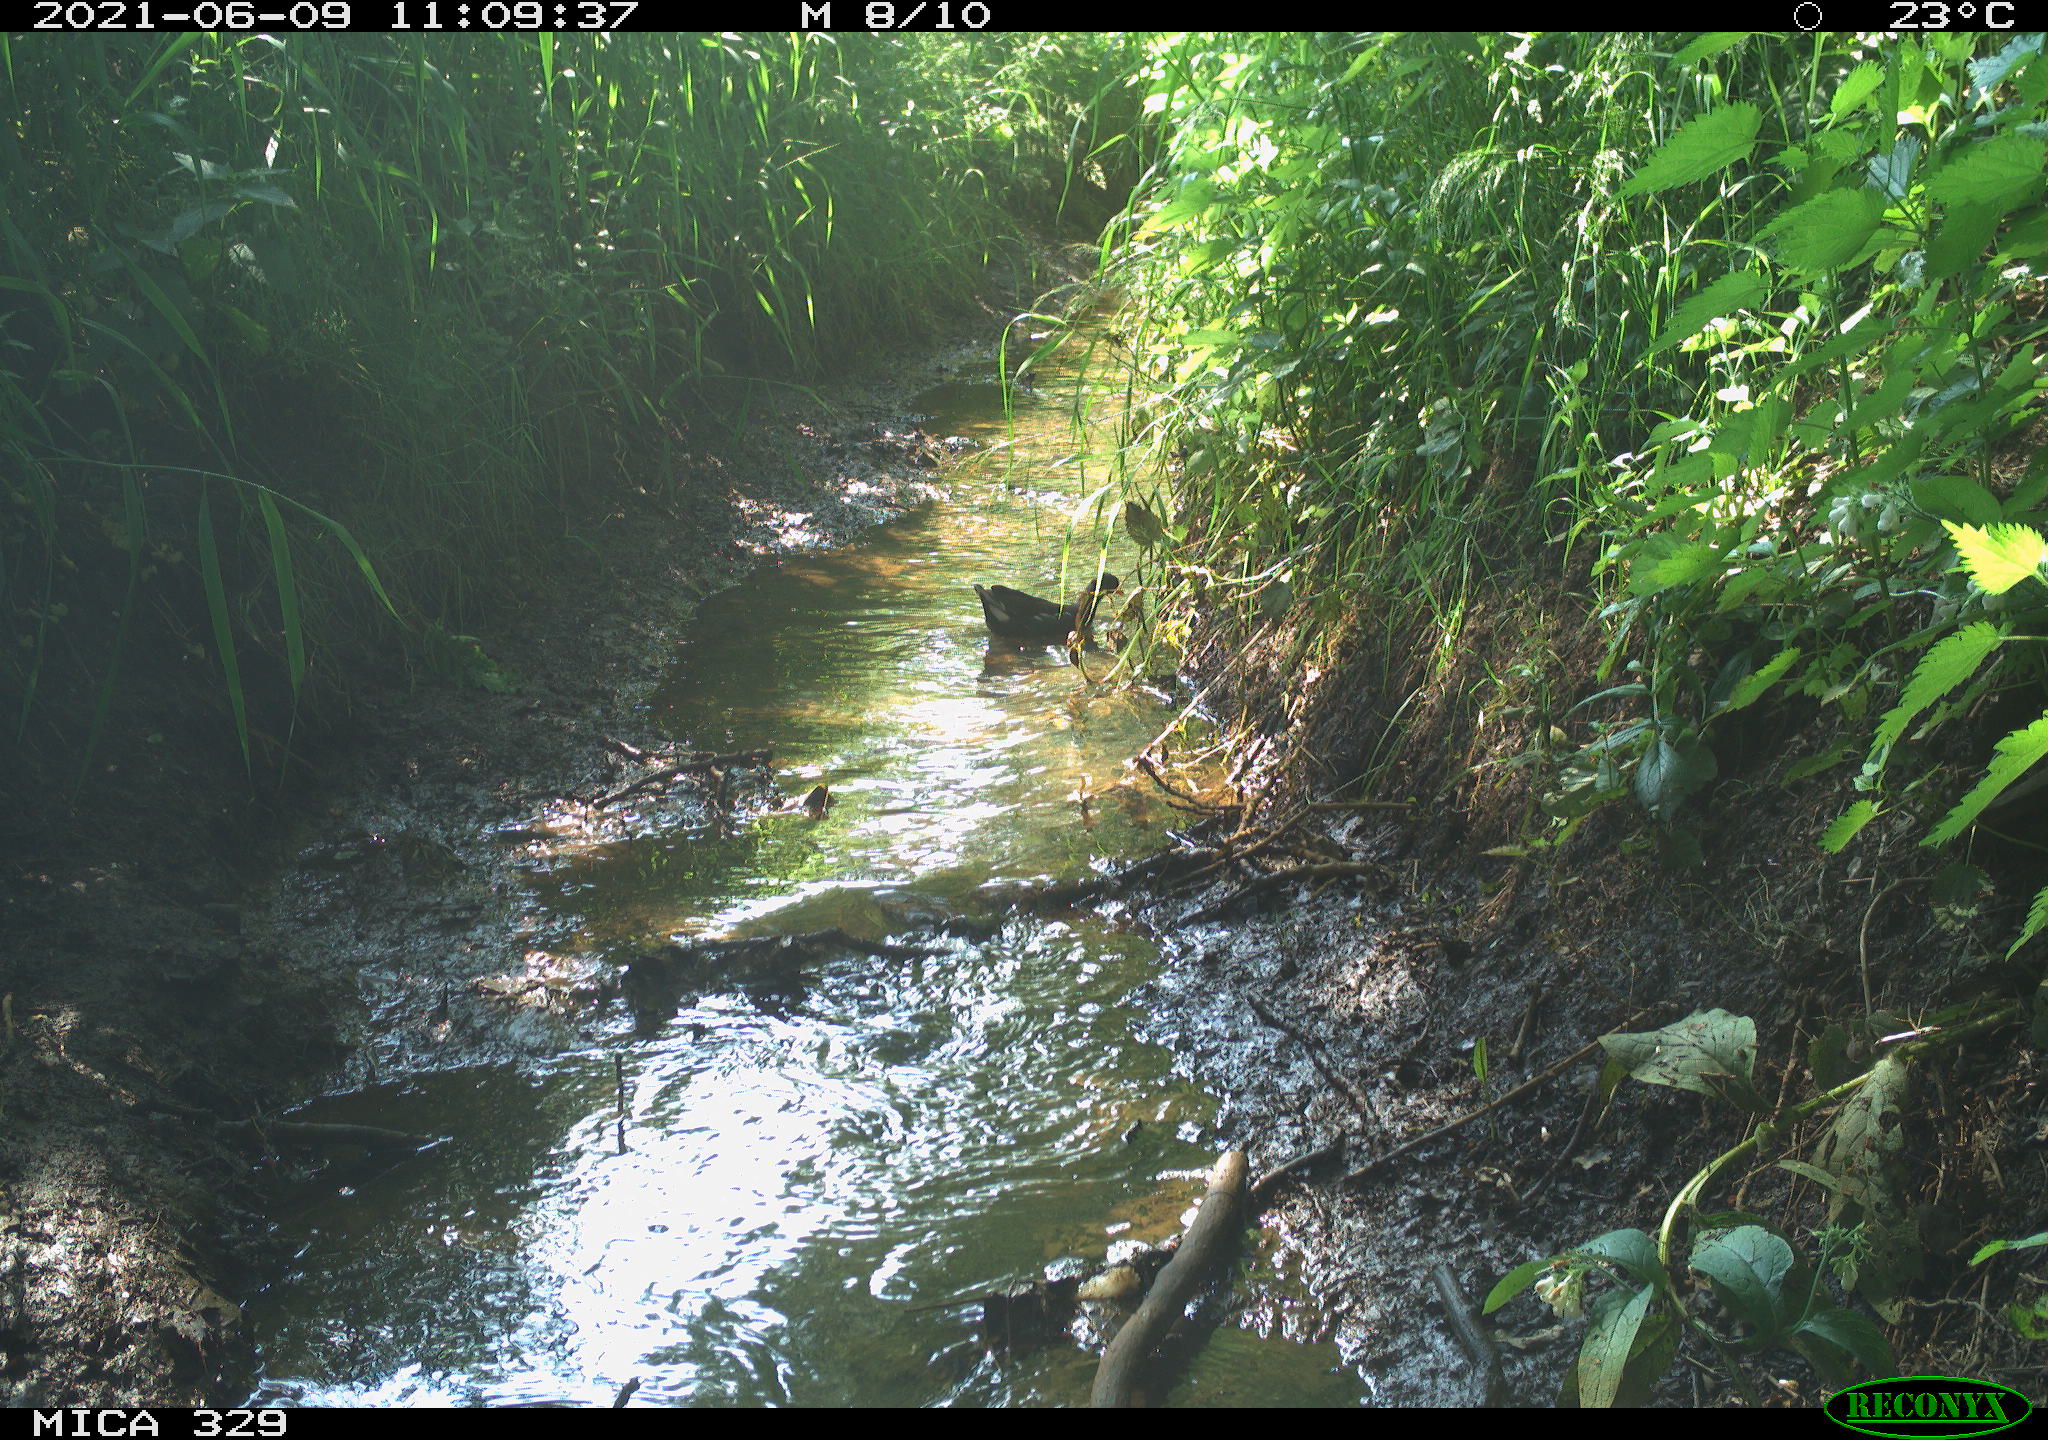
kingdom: Animalia
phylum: Chordata
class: Aves
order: Gruiformes
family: Rallidae
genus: Gallinula
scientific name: Gallinula chloropus
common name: Common moorhen
